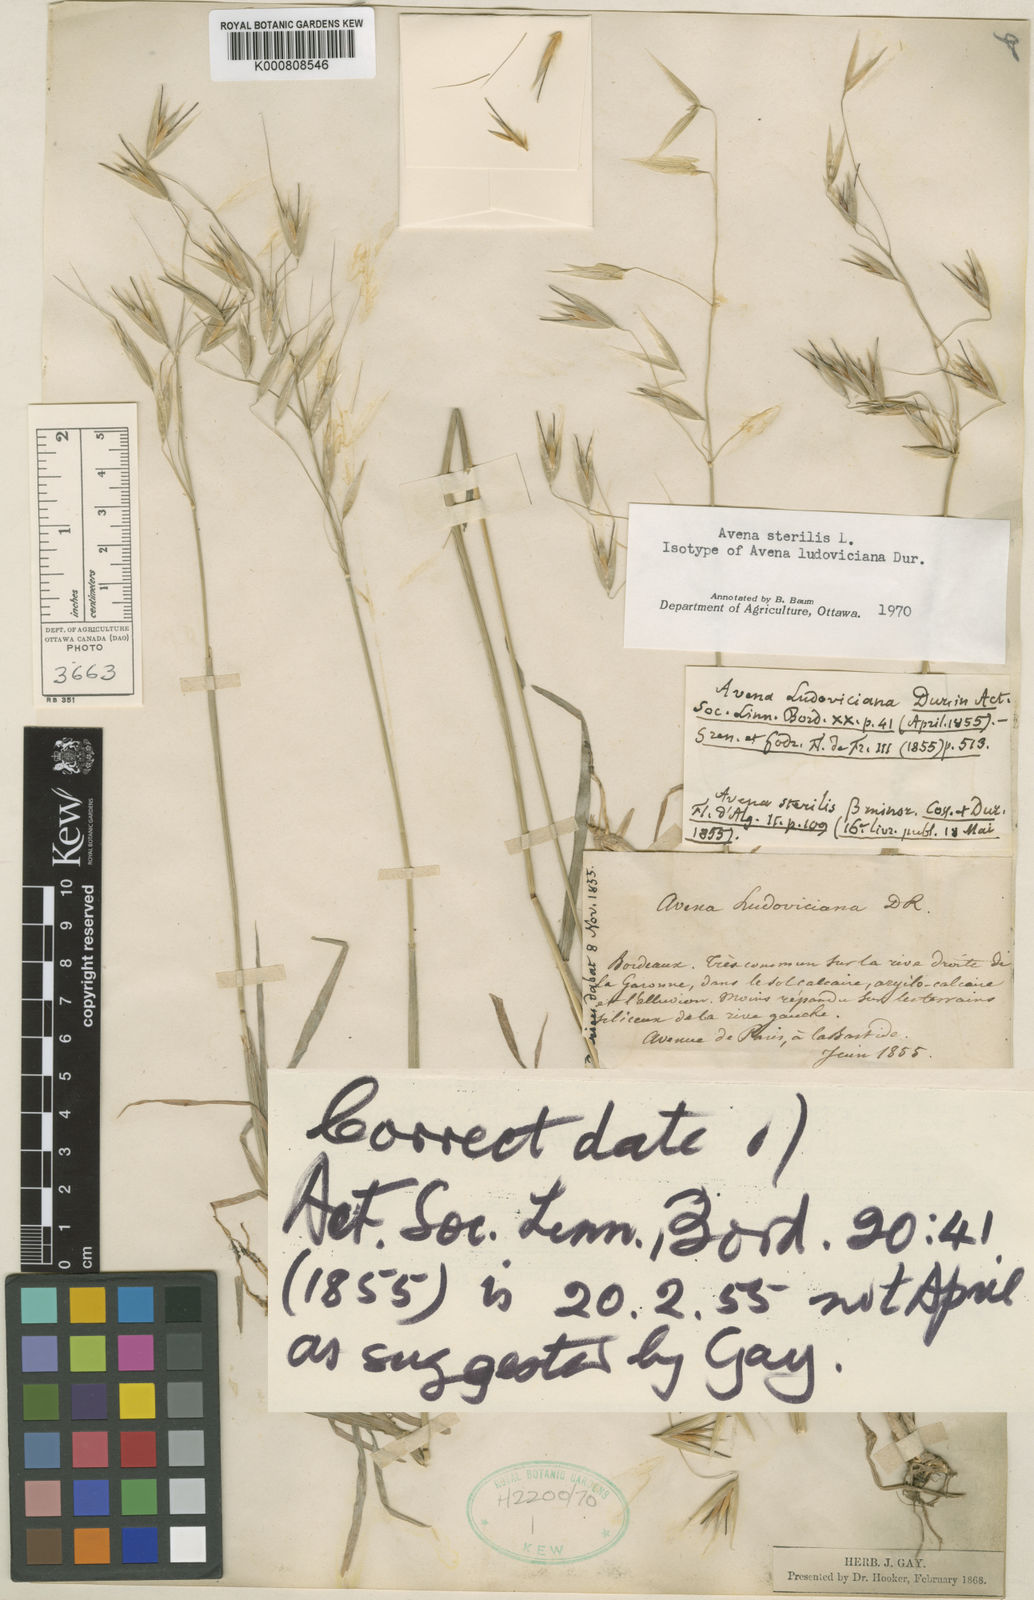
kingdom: Plantae
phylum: Tracheophyta
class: Liliopsida
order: Poales
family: Poaceae
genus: Avena
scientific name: Avena sterilis
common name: Animated oat
